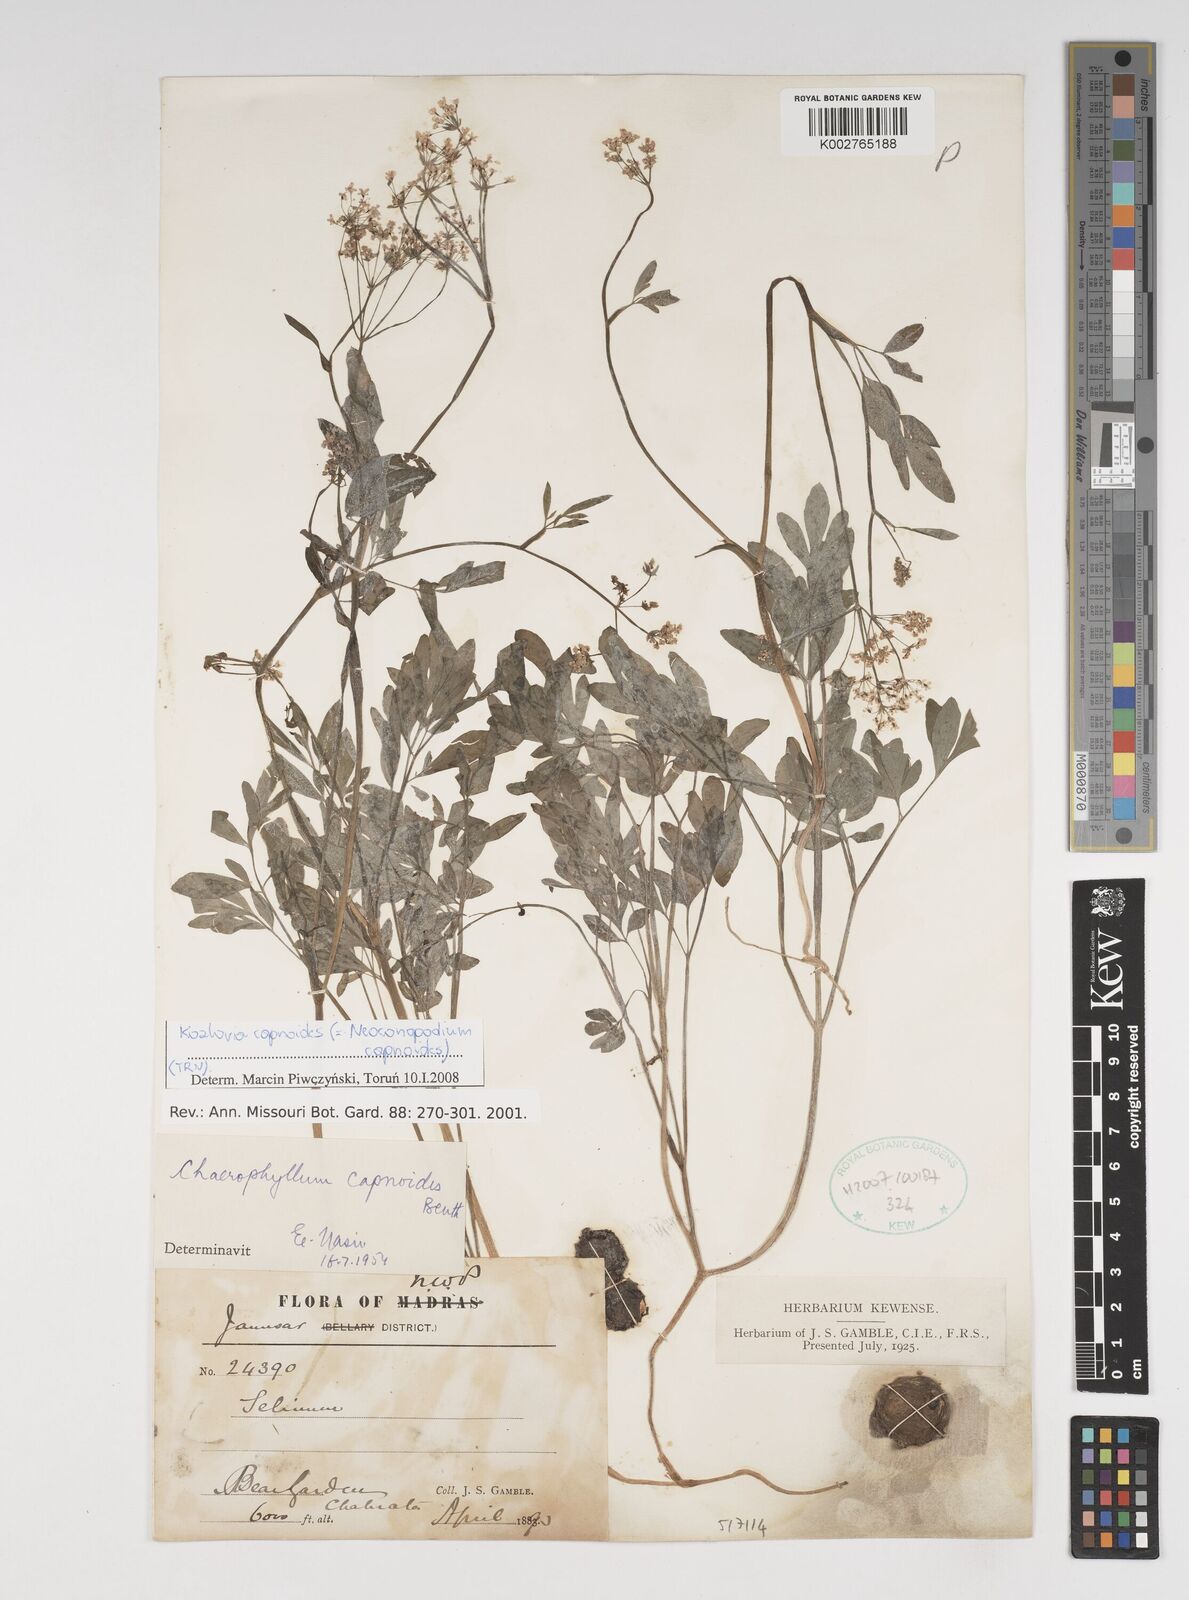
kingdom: Plantae
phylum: Tracheophyta
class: Magnoliopsida
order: Apiales
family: Apiaceae
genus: Kozlovia
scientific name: Kozlovia capnoides
